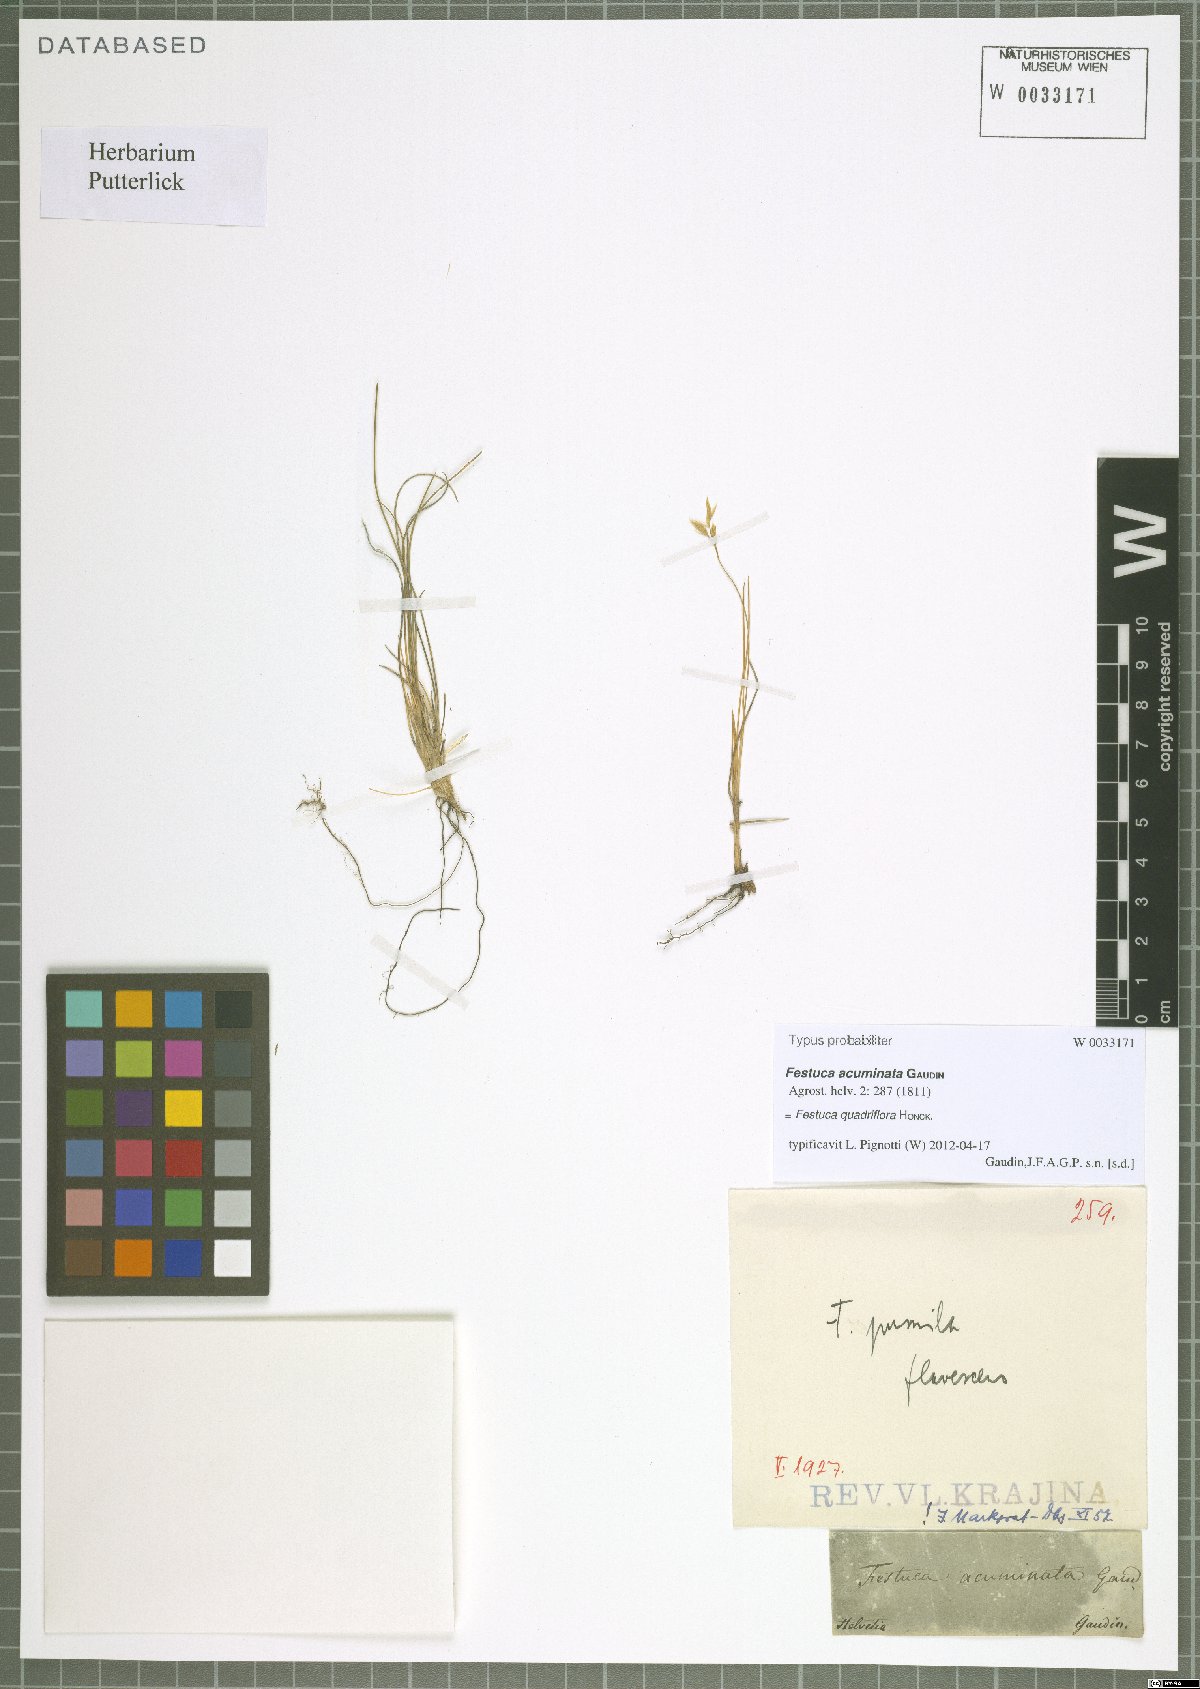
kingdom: Plantae
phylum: Tracheophyta
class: Liliopsida
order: Poales
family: Poaceae
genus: Festuca
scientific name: Festuca quadriflora
